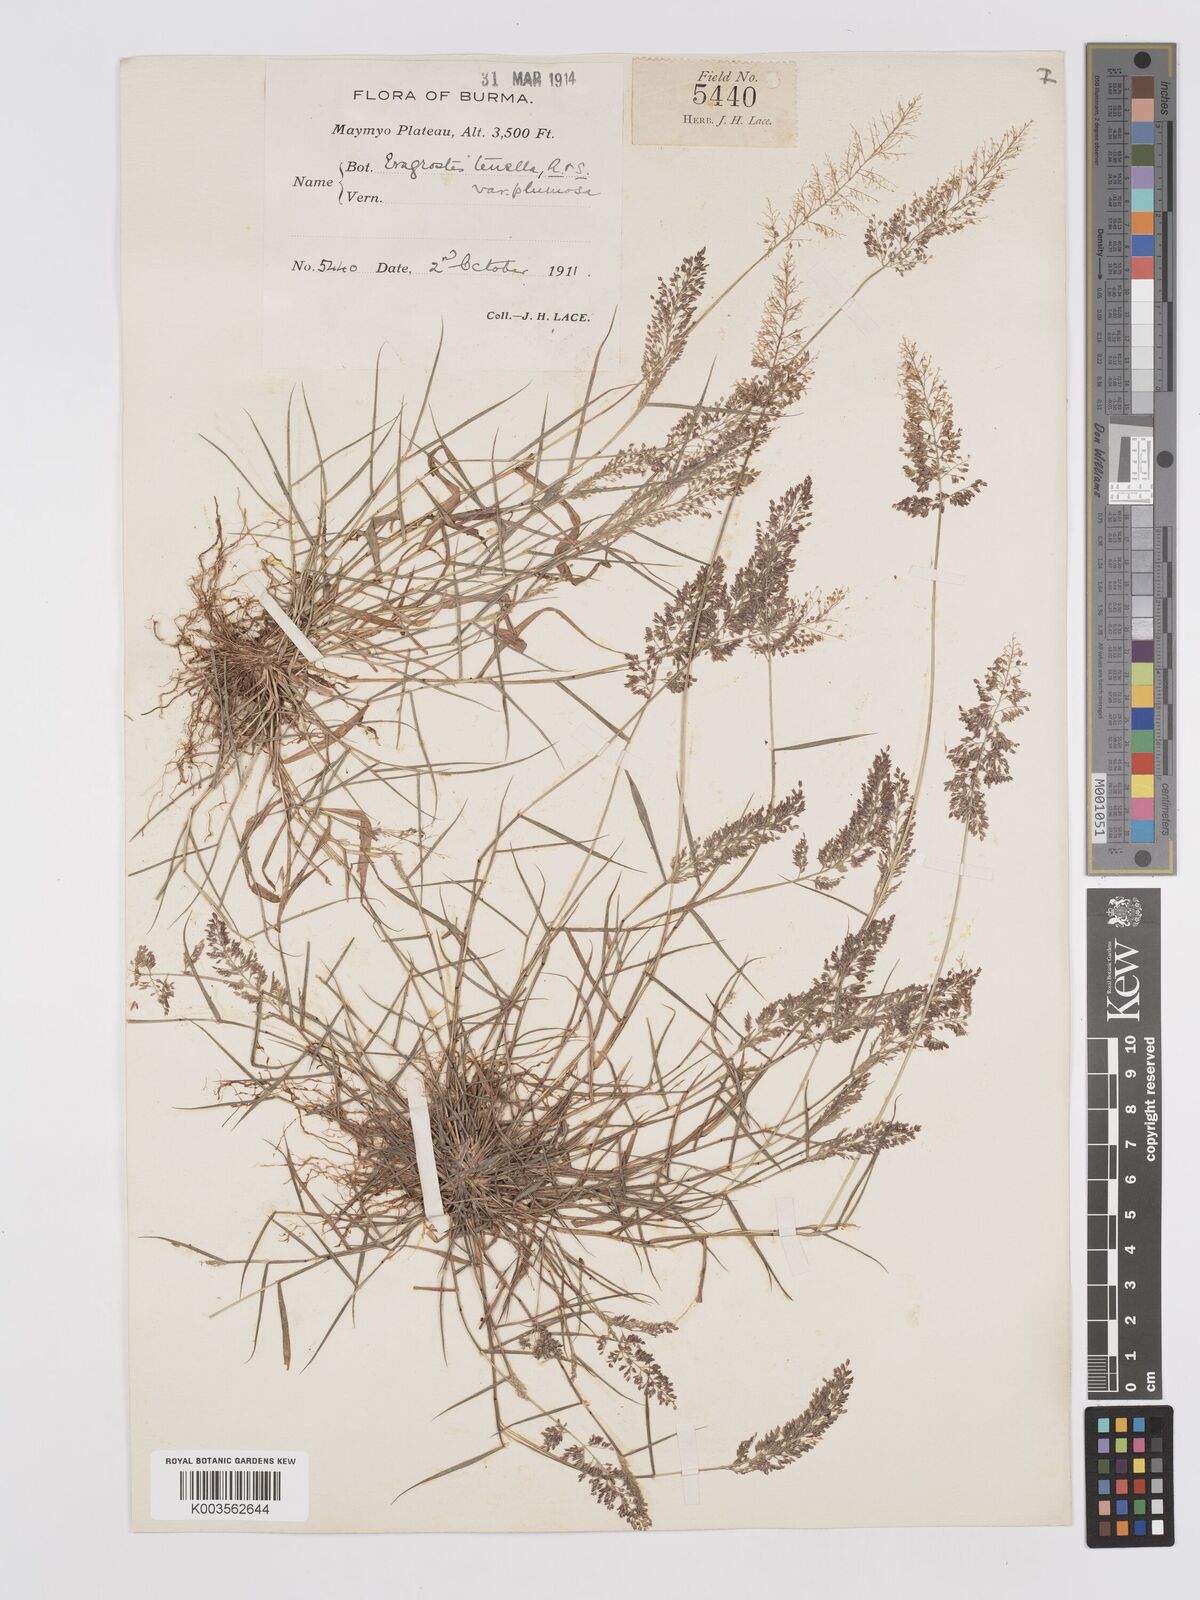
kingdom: Plantae
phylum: Tracheophyta
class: Liliopsida
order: Poales
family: Poaceae
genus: Eragrostis
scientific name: Eragrostis tenella
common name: Japanese lovegrass
